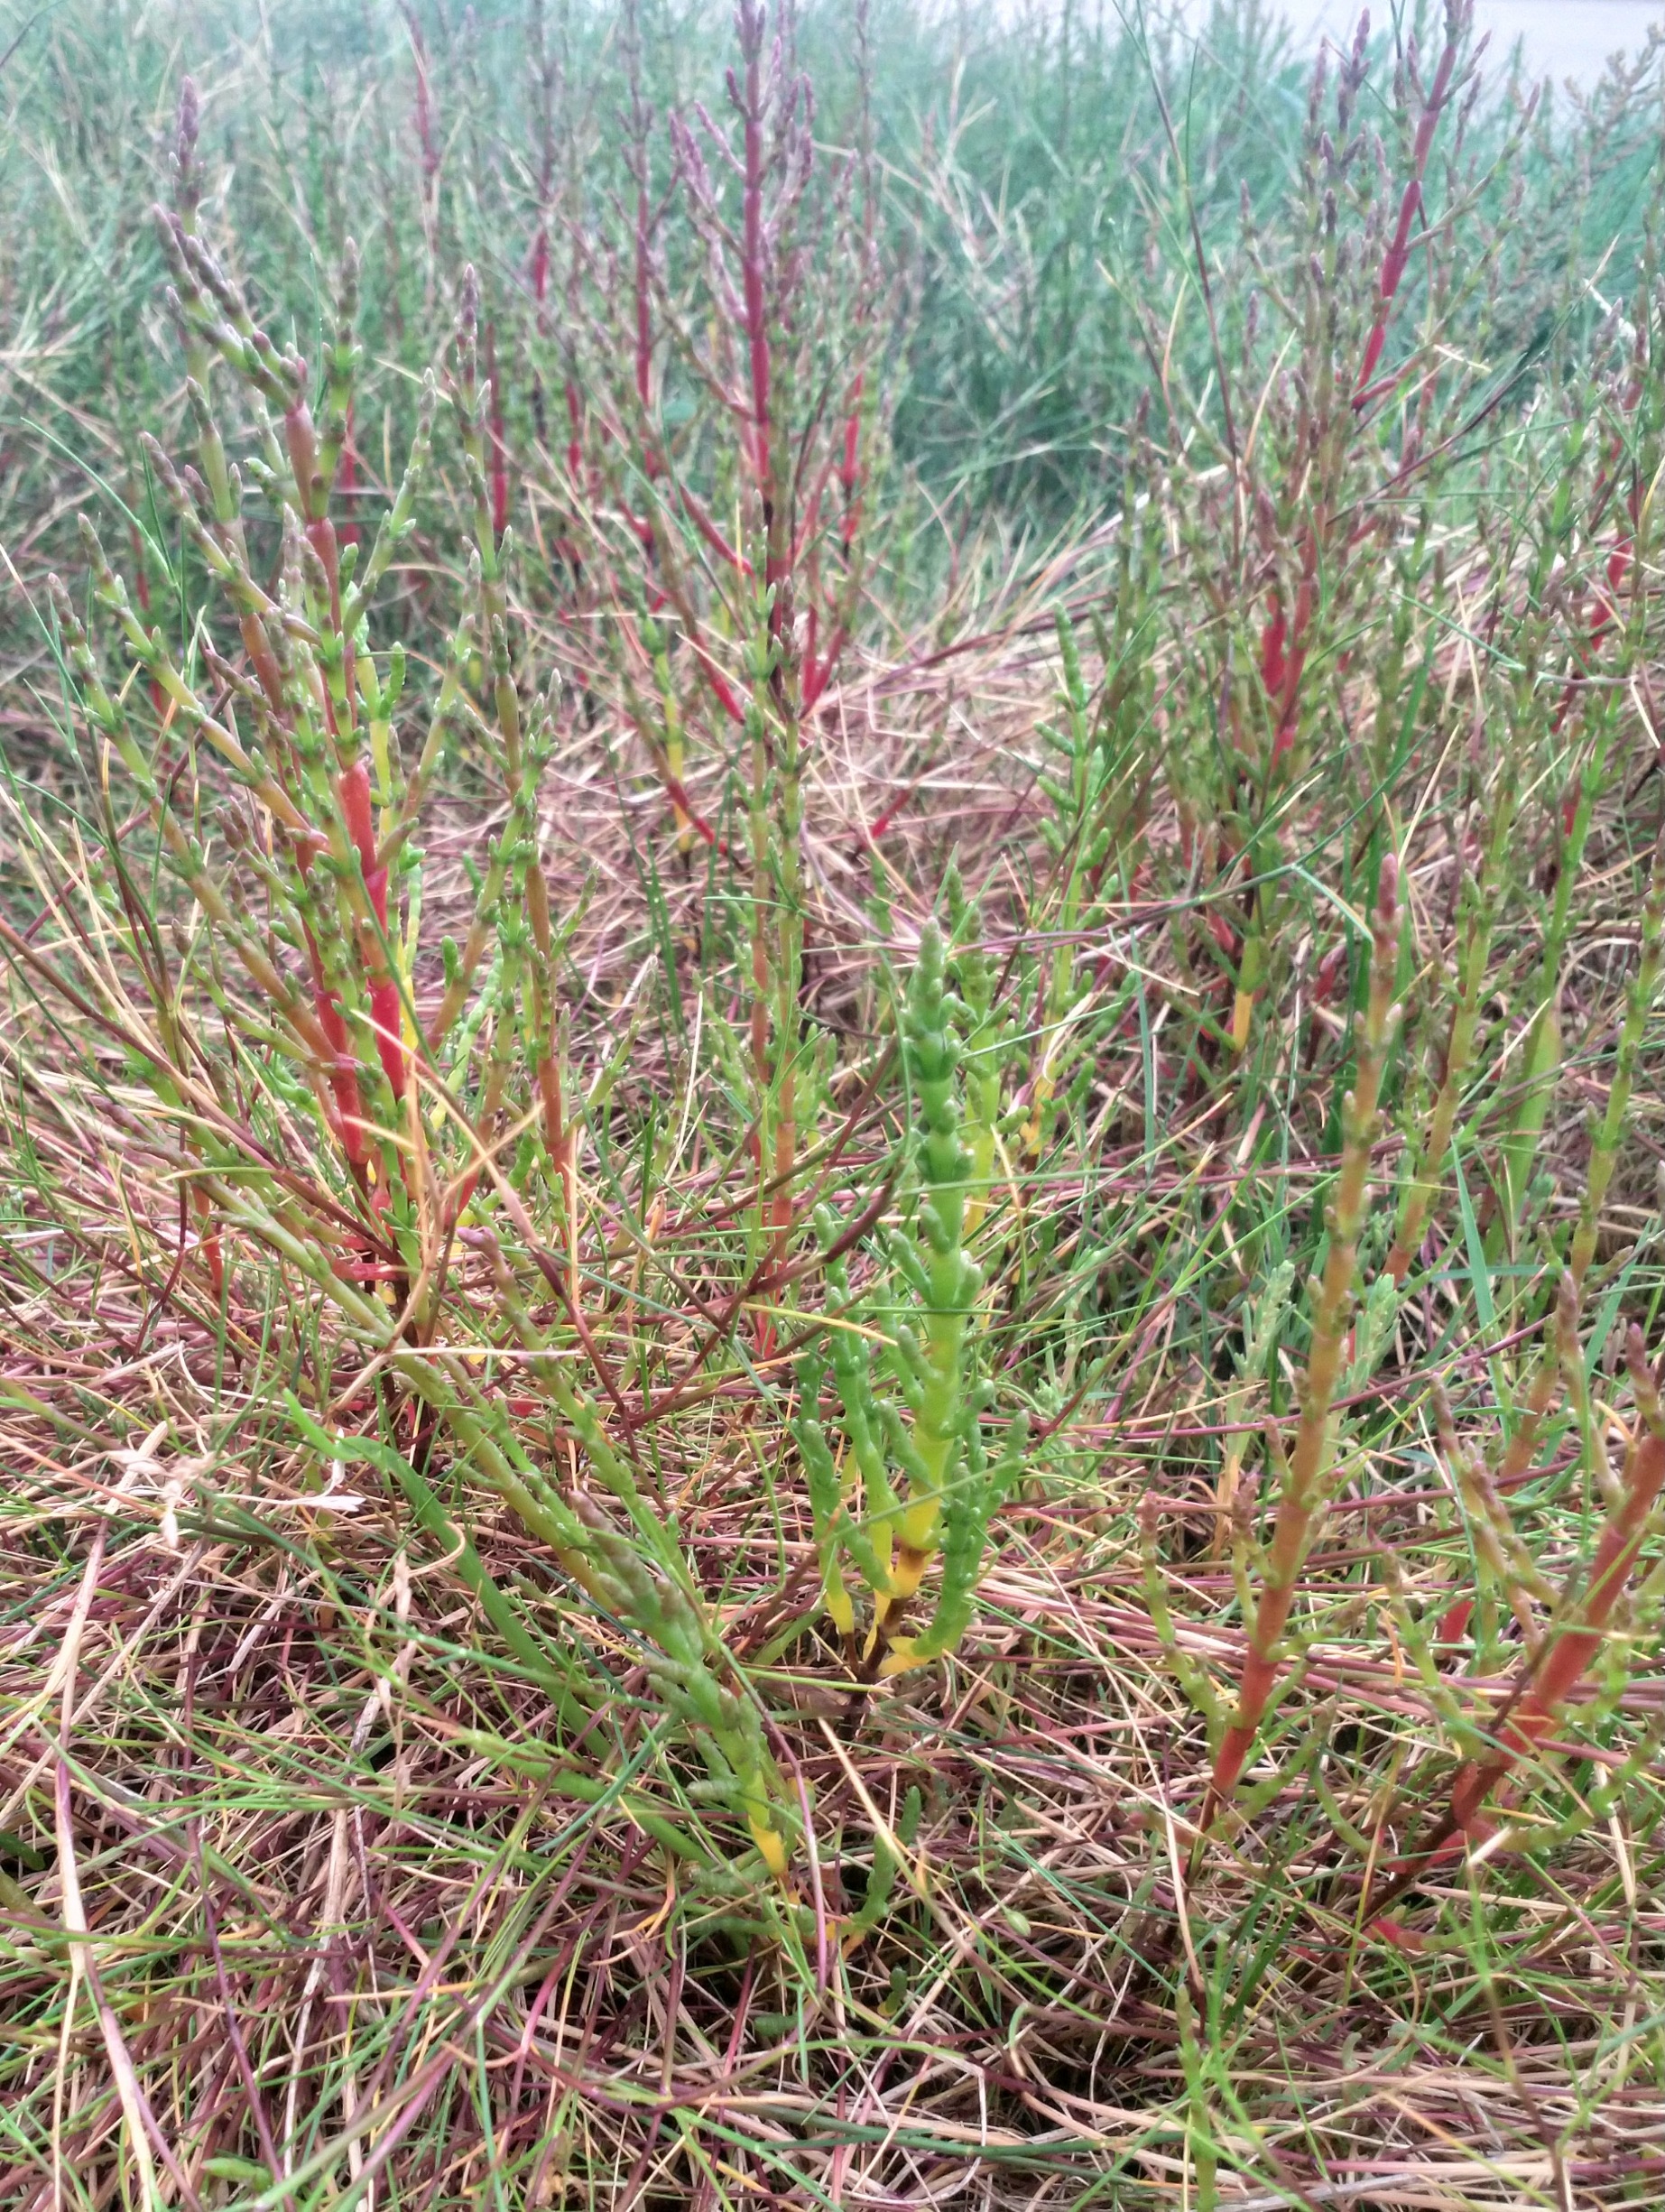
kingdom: Plantae
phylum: Tracheophyta
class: Magnoliopsida
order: Caryophyllales
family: Amaranthaceae
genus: Salicornia
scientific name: Salicornia europaea
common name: Almindelig salturt
